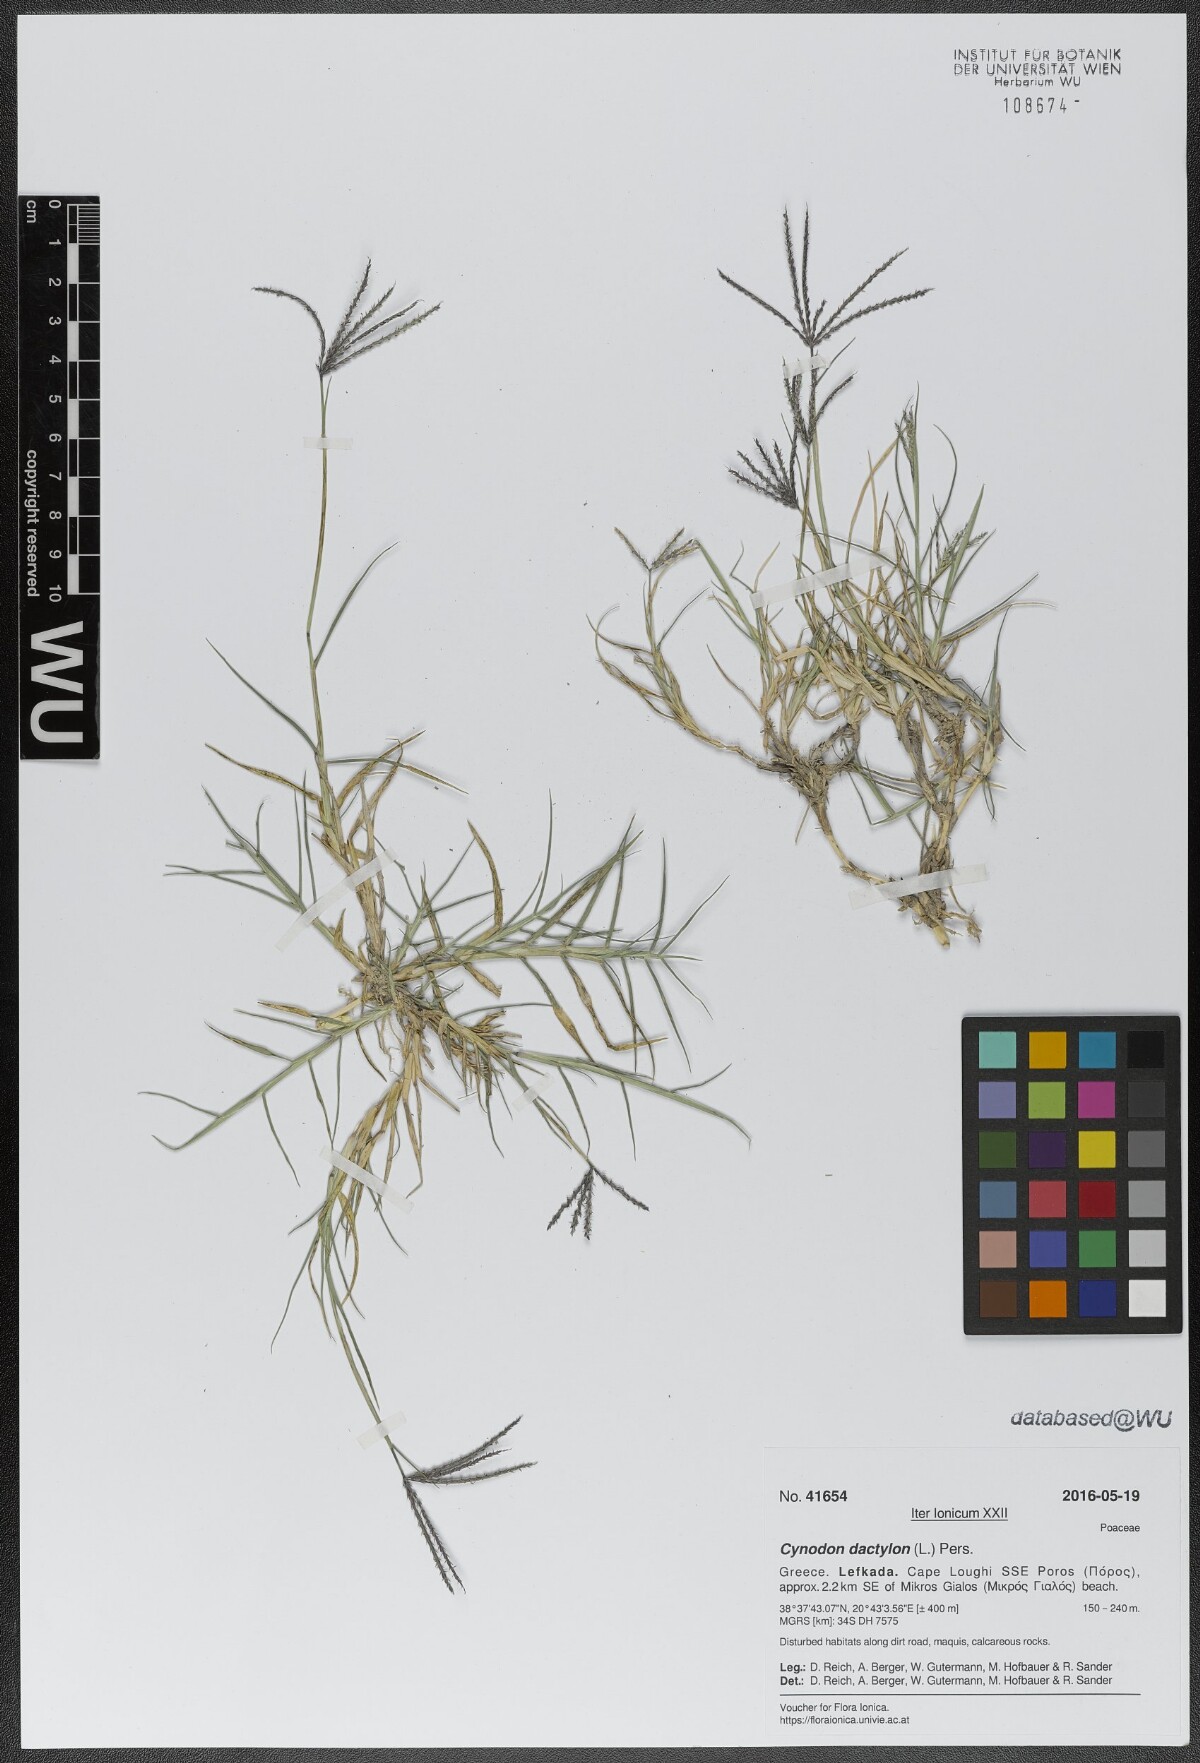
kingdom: Plantae
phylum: Tracheophyta
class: Liliopsida
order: Poales
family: Poaceae
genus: Cynodon
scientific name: Cynodon dactylon
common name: Bermuda grass
